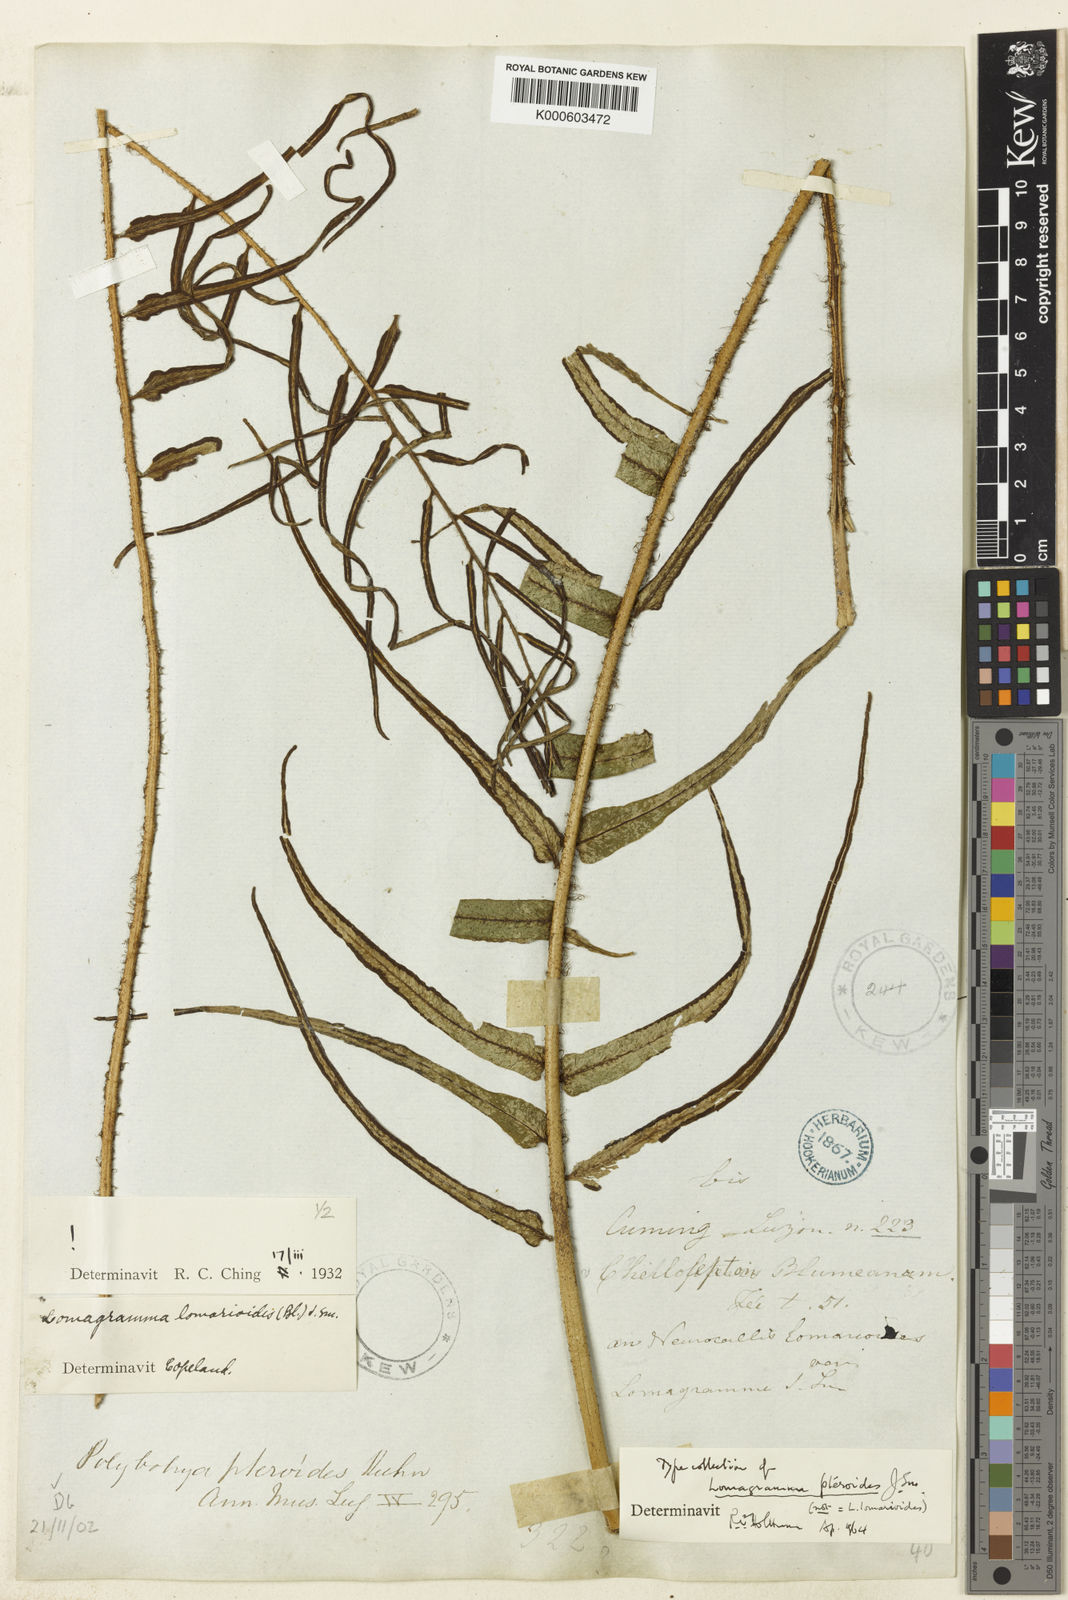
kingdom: Plantae
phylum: Tracheophyta
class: Polypodiopsida
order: Polypodiales
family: Dryopteridaceae
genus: Lomagramma
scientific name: Lomagramma pteroides
